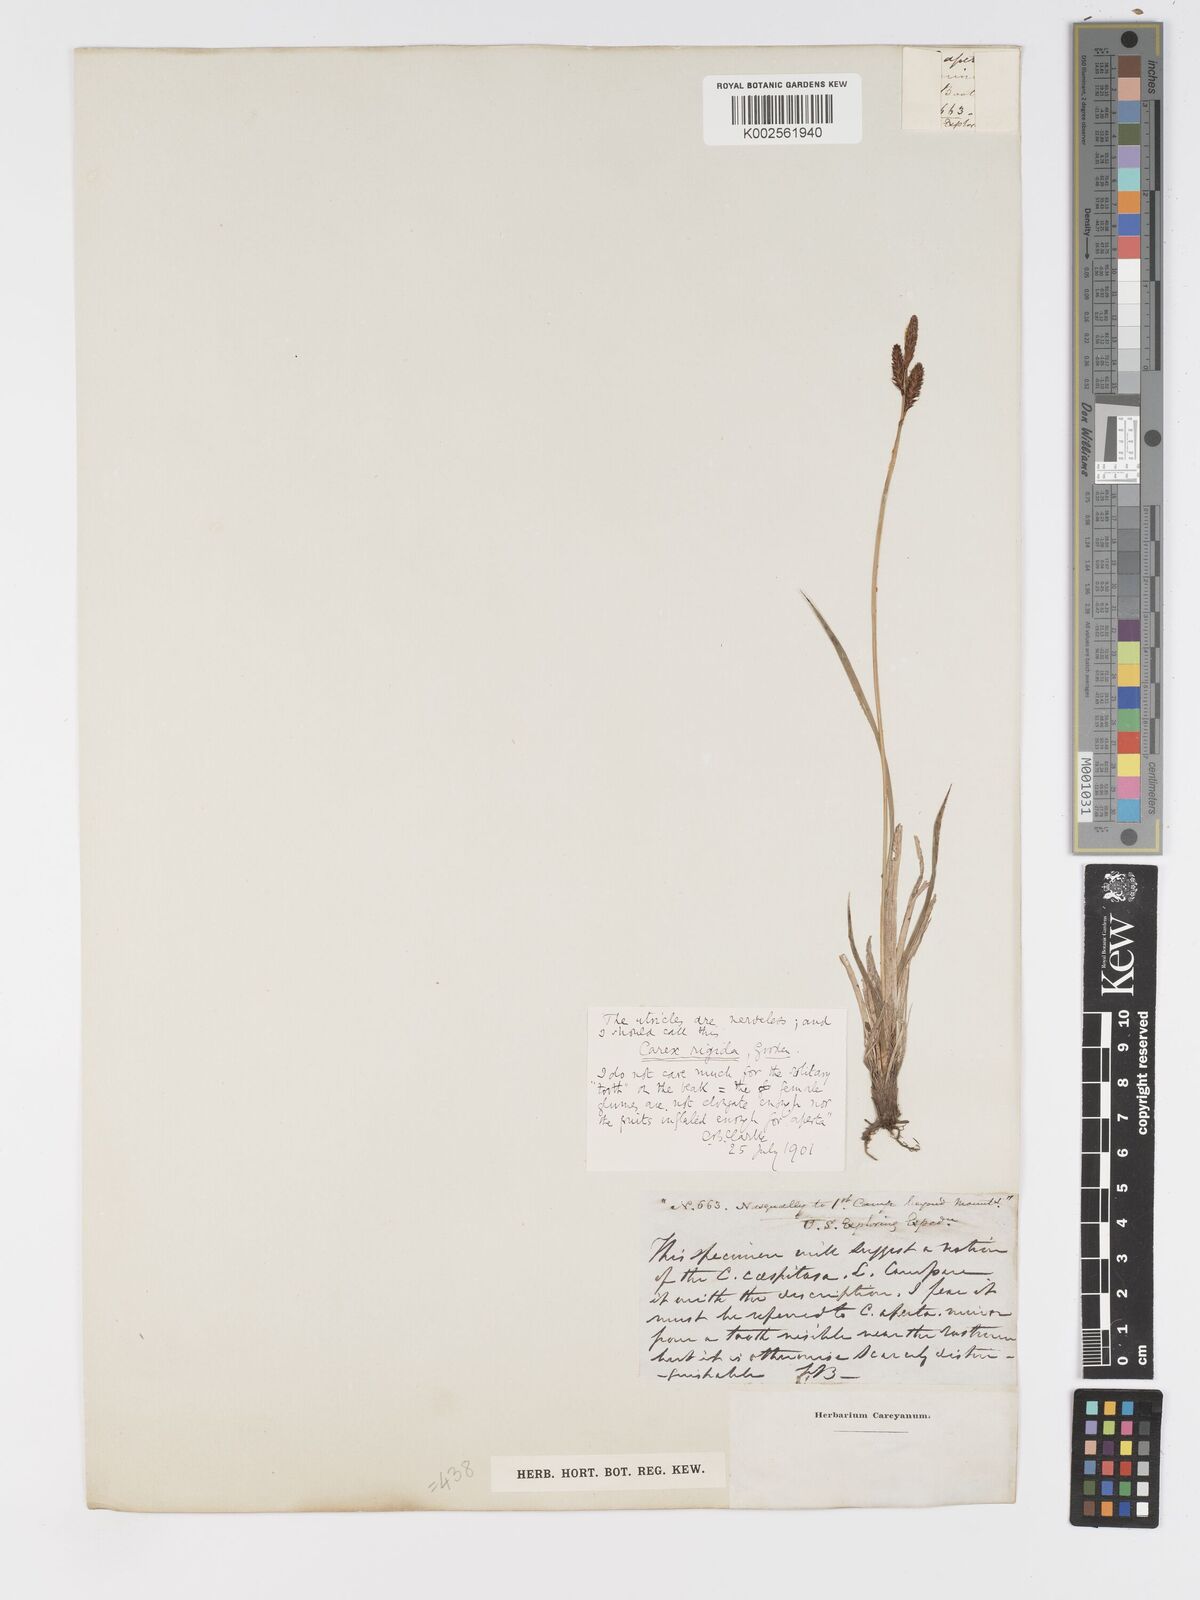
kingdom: Plantae
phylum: Tracheophyta
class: Liliopsida
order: Poales
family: Cyperaceae
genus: Carex
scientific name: Carex bigelowii
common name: Stiff sedge
